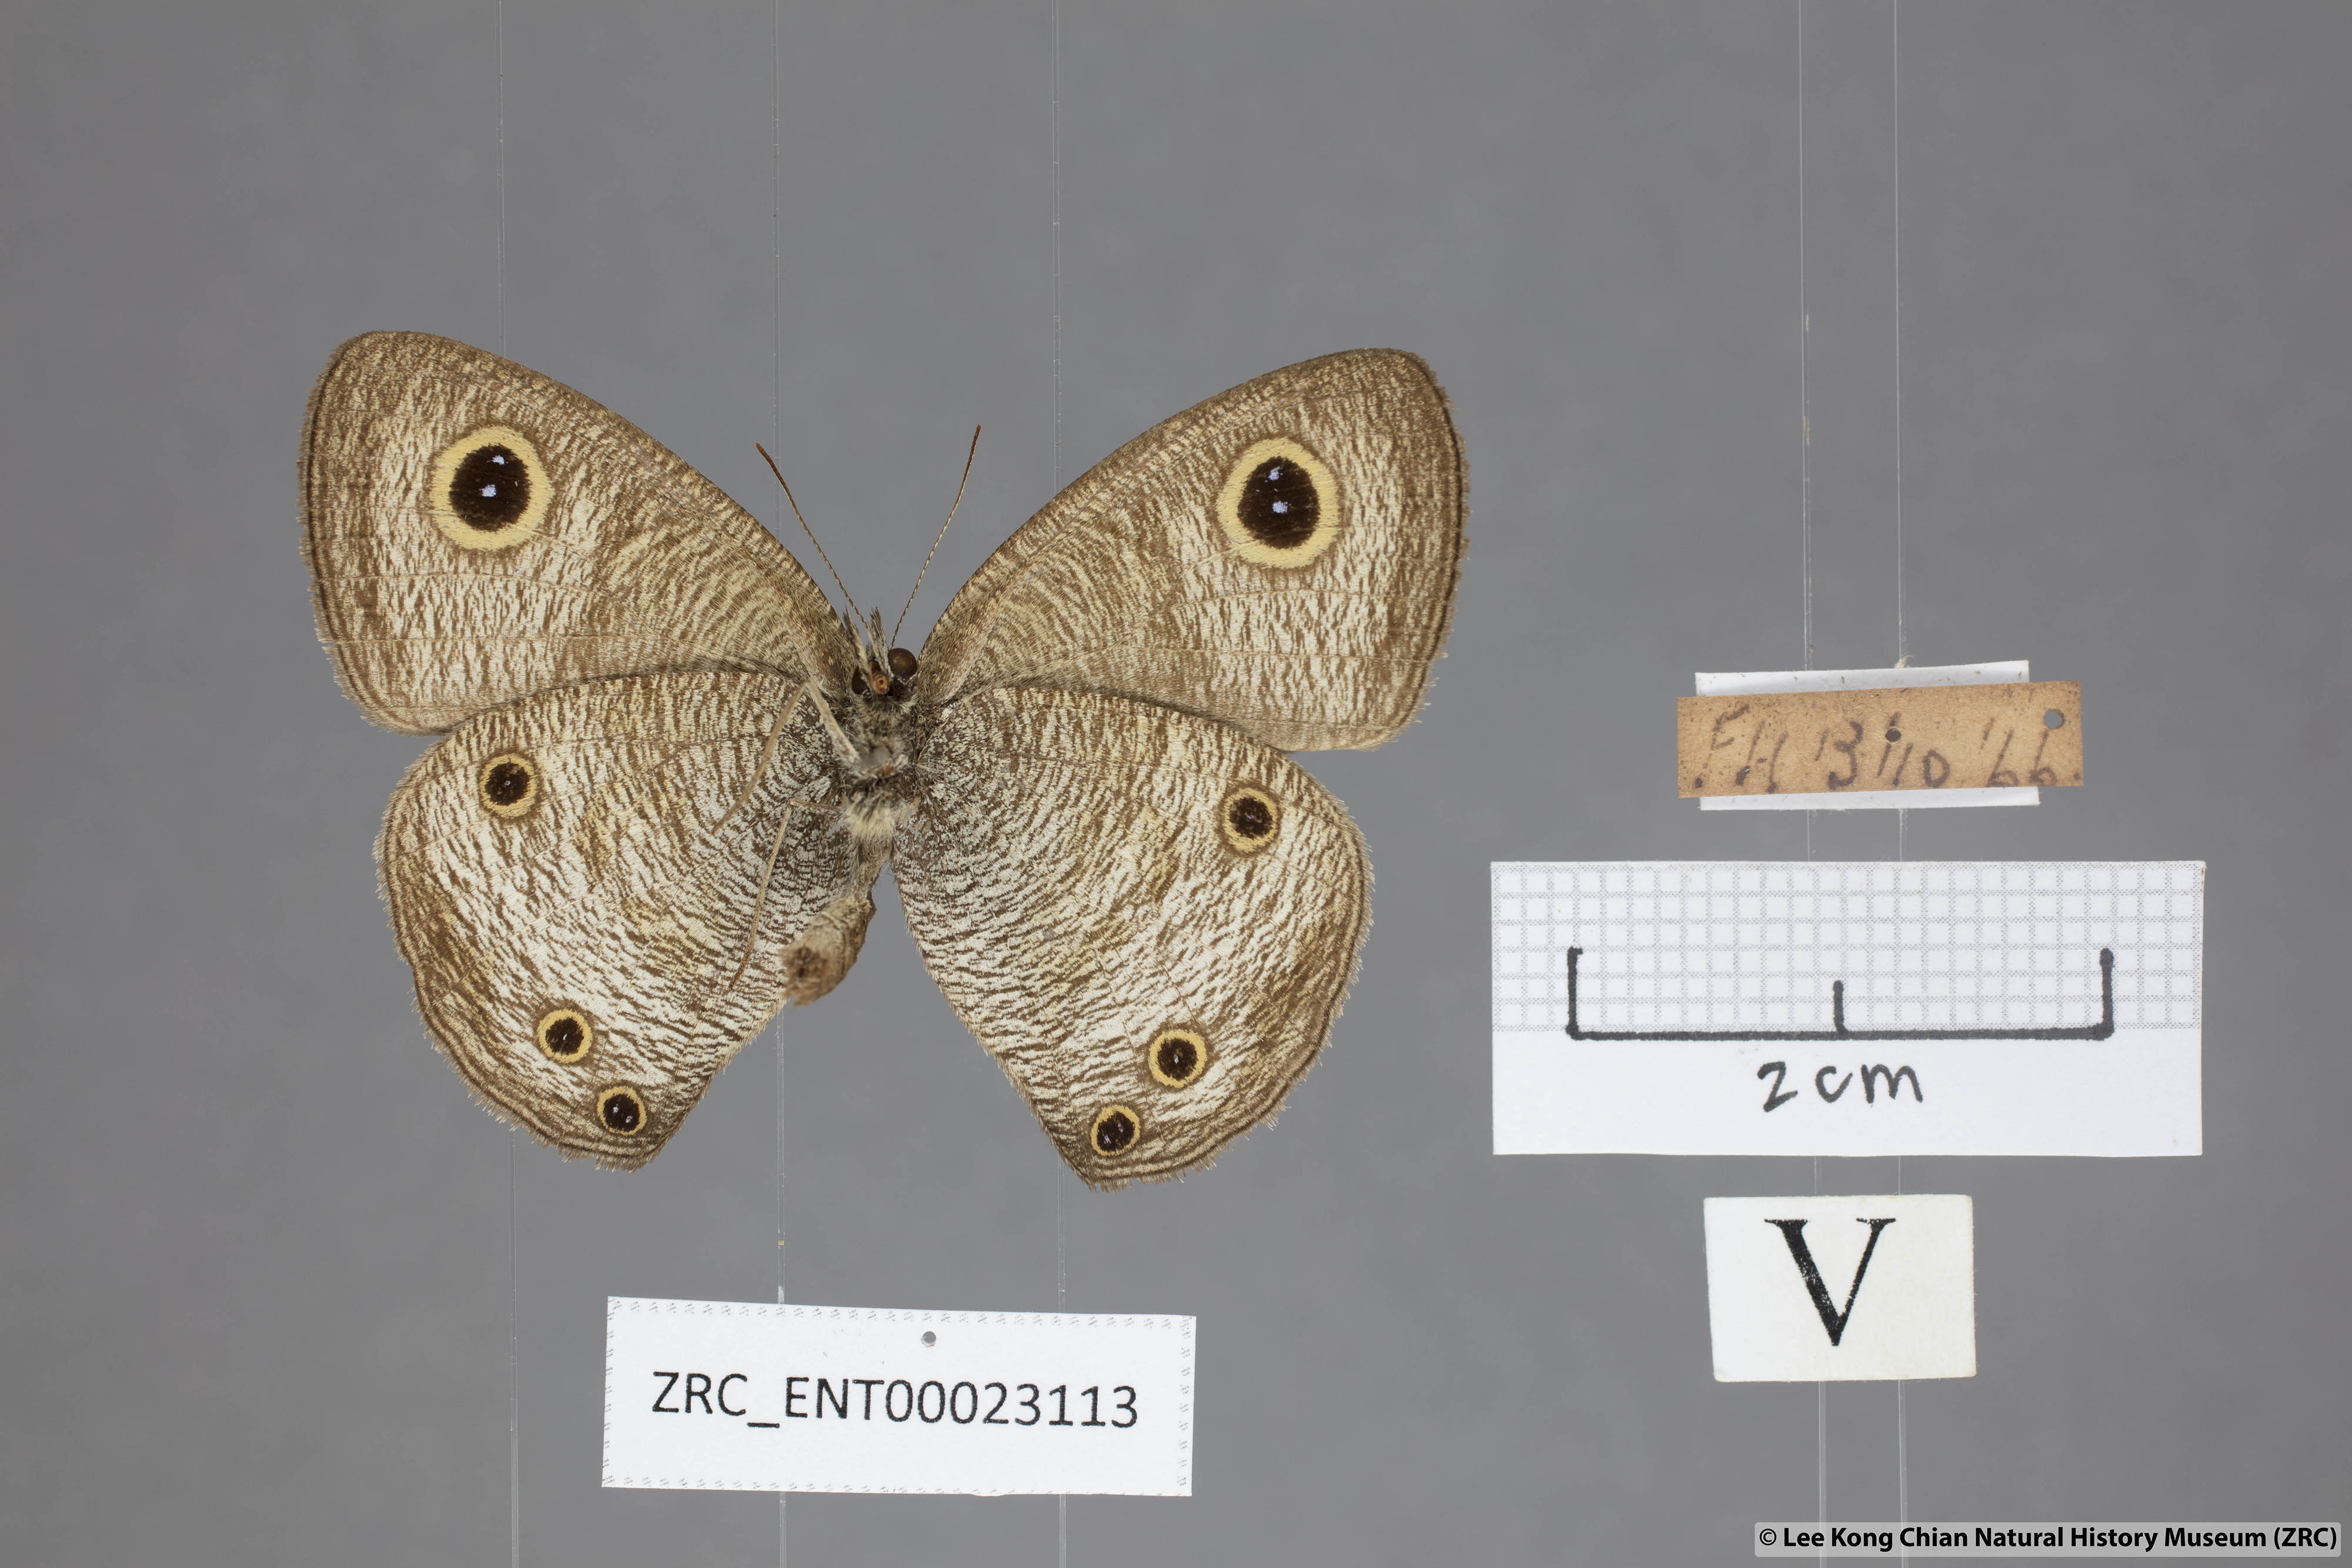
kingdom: Animalia
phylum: Arthropoda
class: Insecta
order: Lepidoptera
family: Nymphalidae
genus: Ypthima
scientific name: Ypthima pandocus
